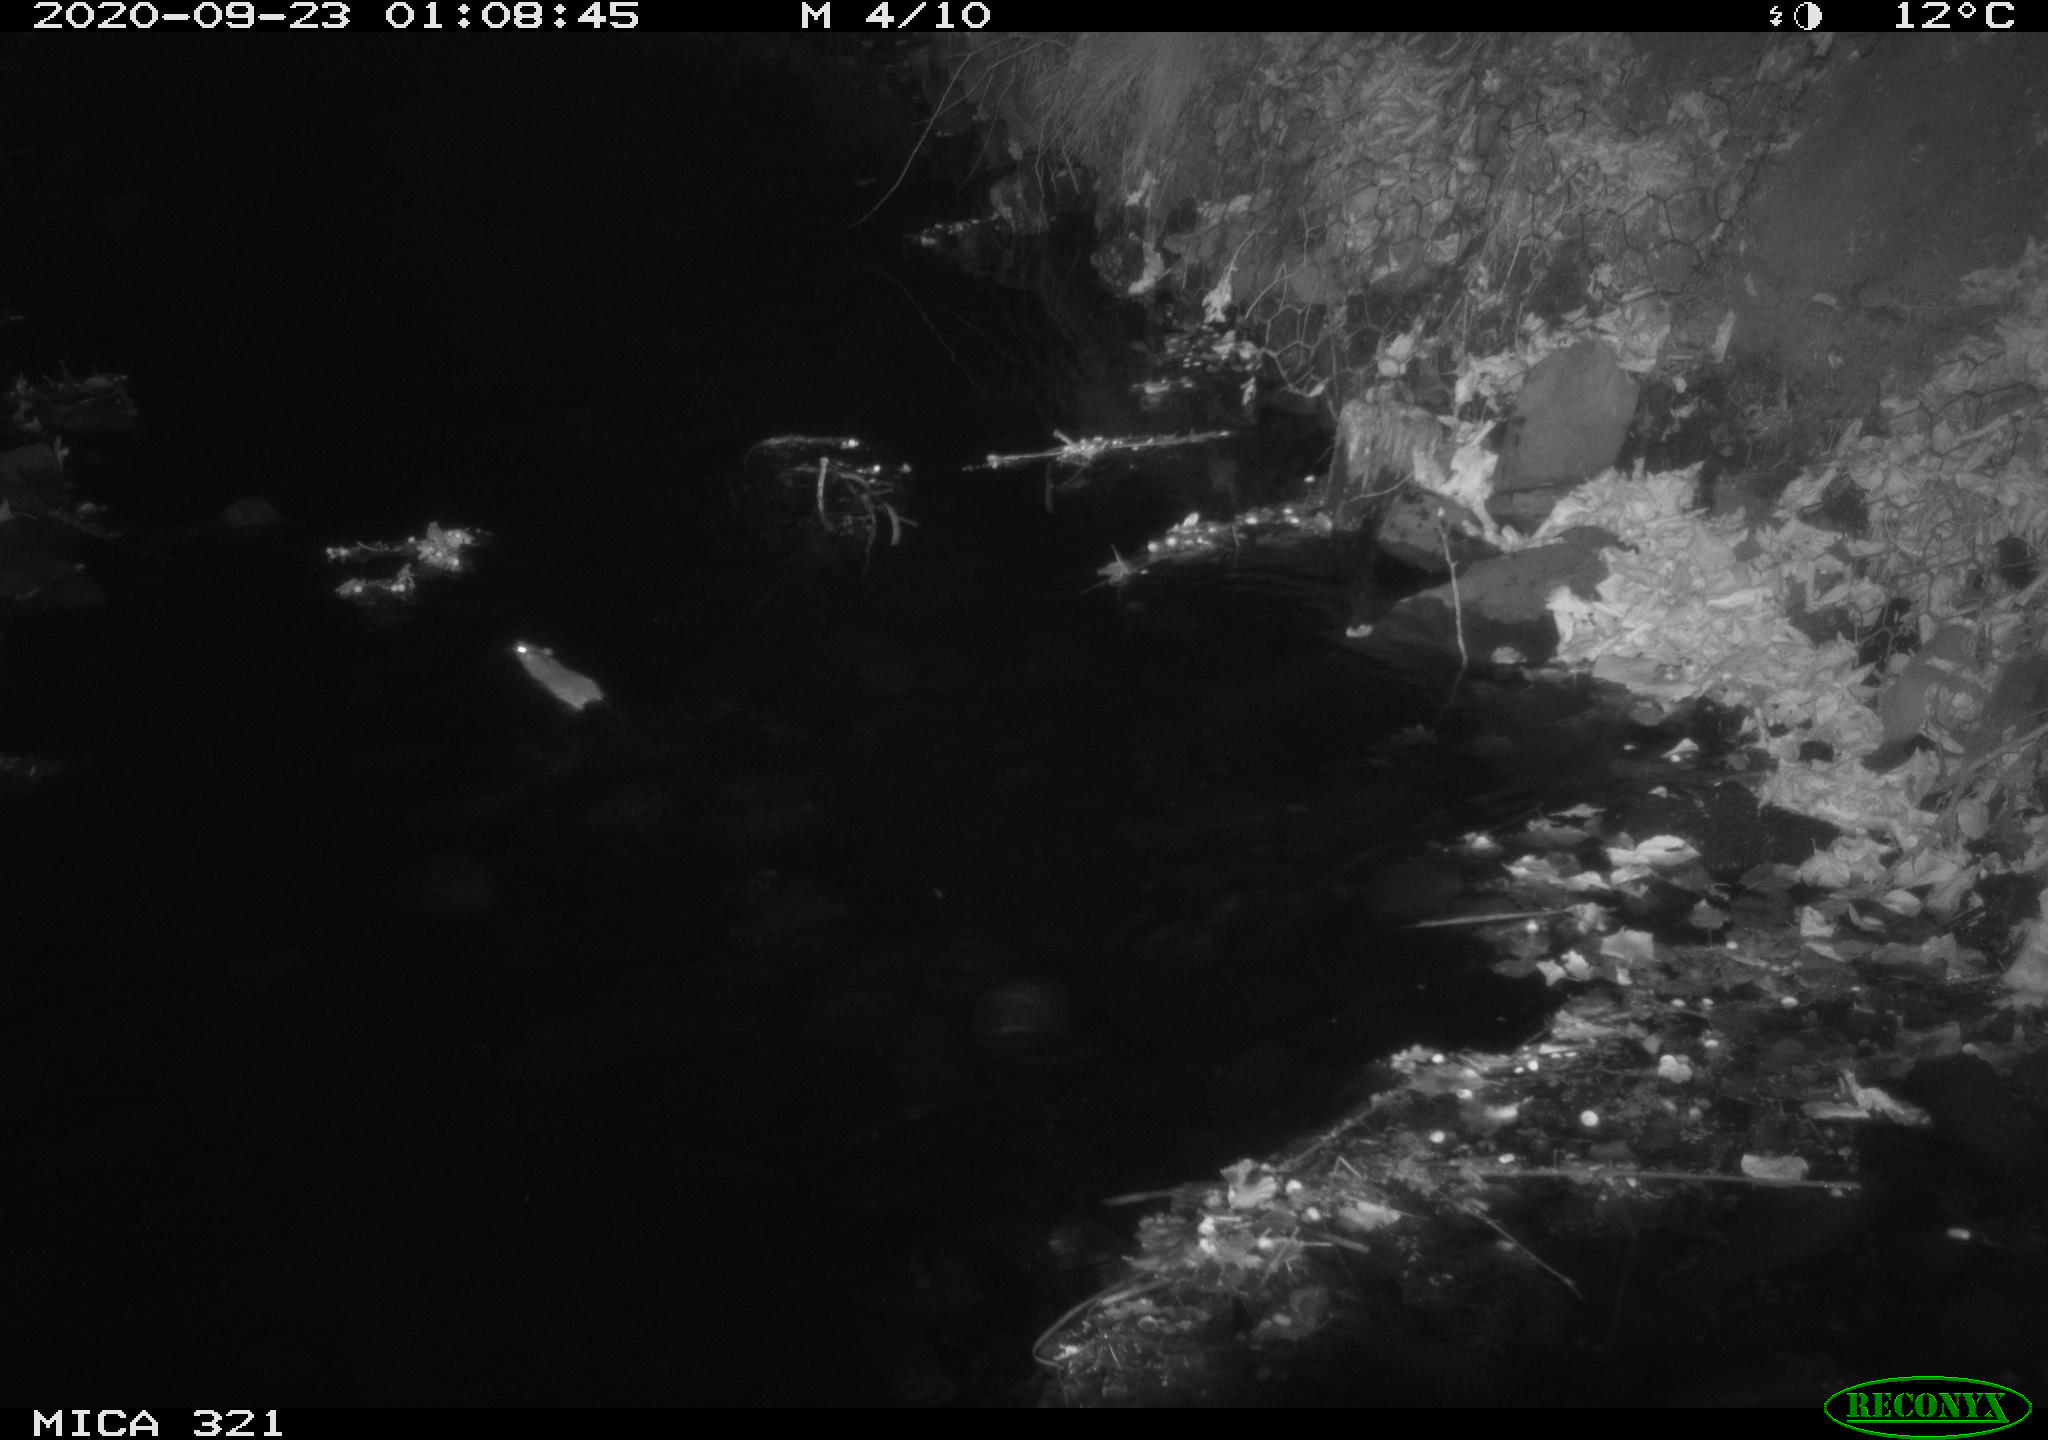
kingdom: Animalia
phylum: Chordata
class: Mammalia
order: Rodentia
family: Muridae
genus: Rattus
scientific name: Rattus norvegicus
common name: Brown rat
